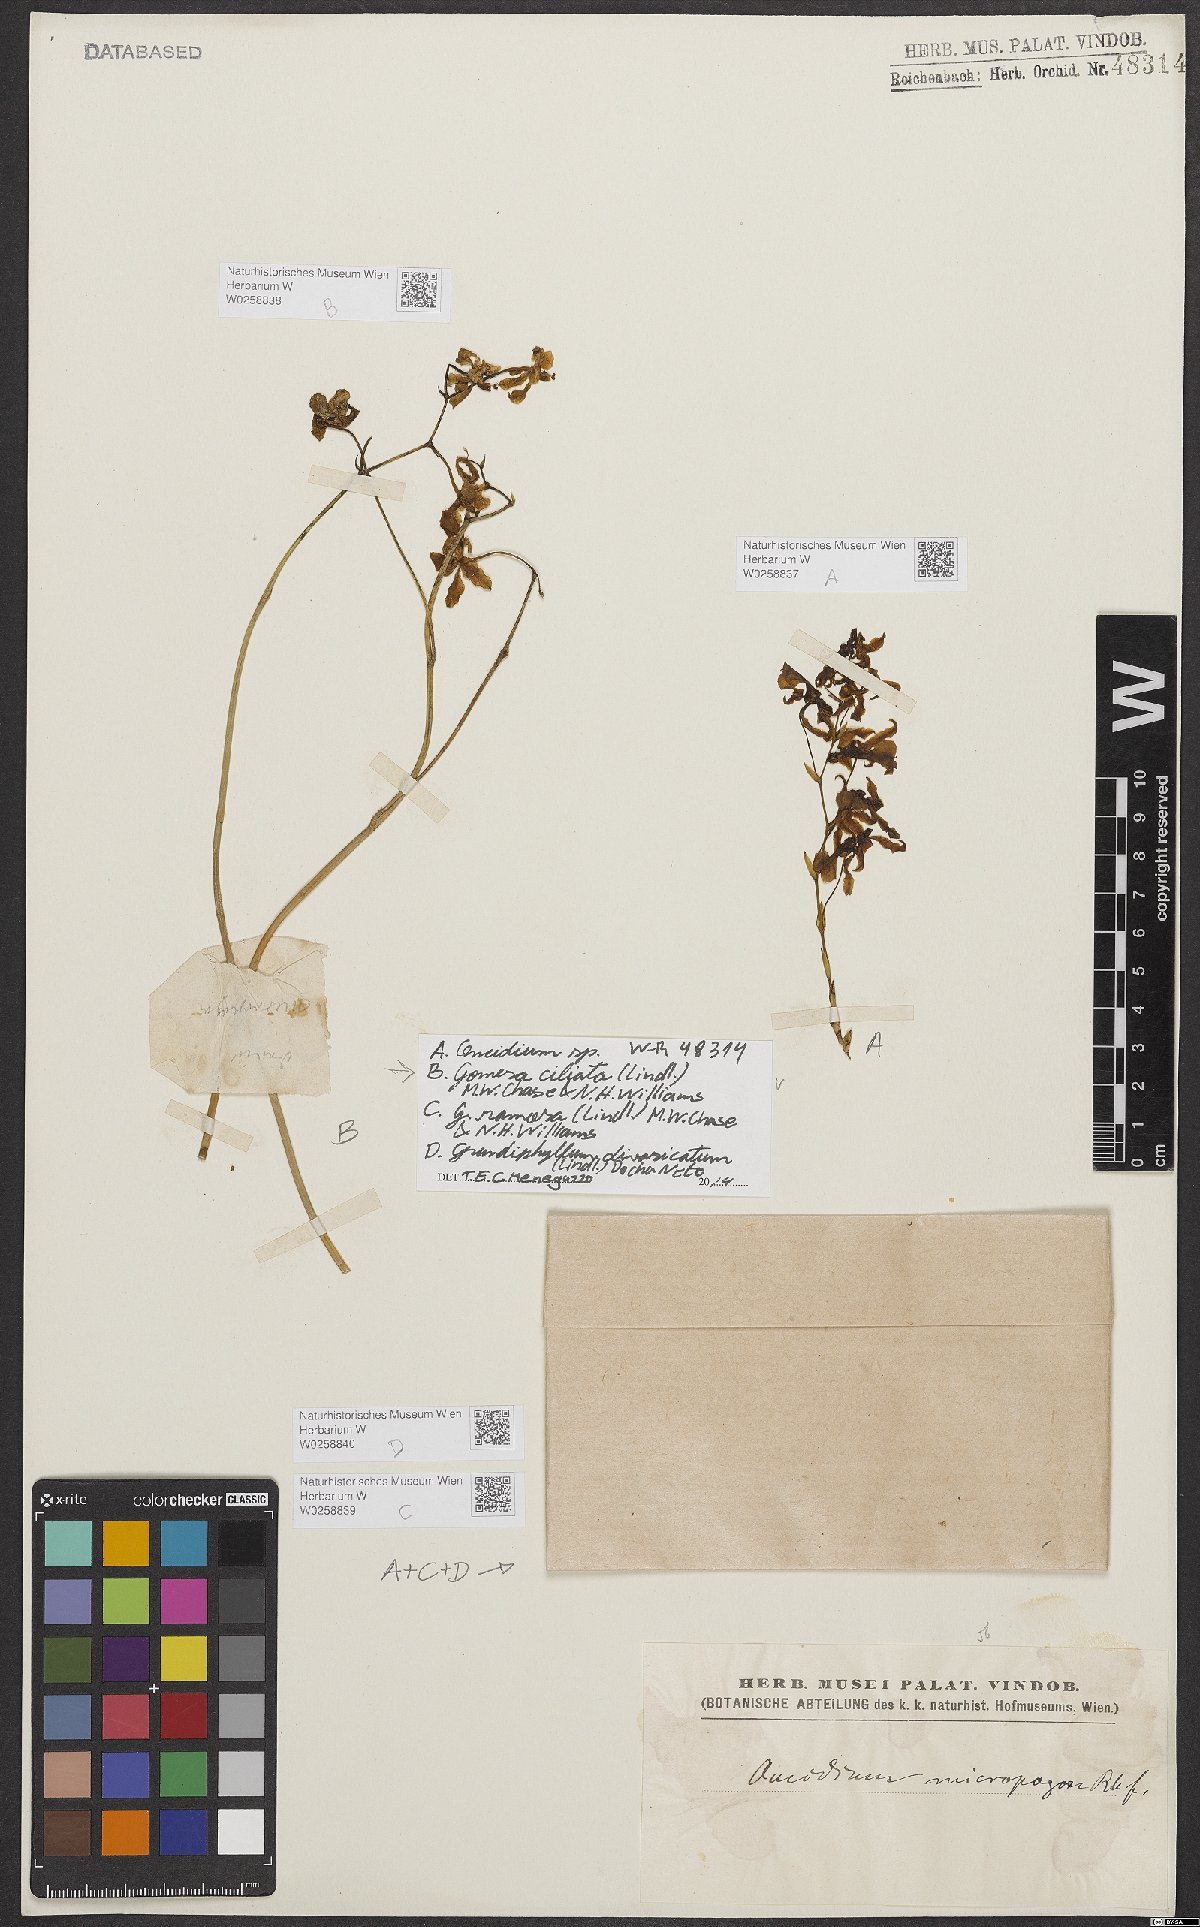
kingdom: Plantae
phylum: Tracheophyta
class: Liliopsida
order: Asparagales
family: Orchidaceae
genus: Gomesa
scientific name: Gomesa ciliata
